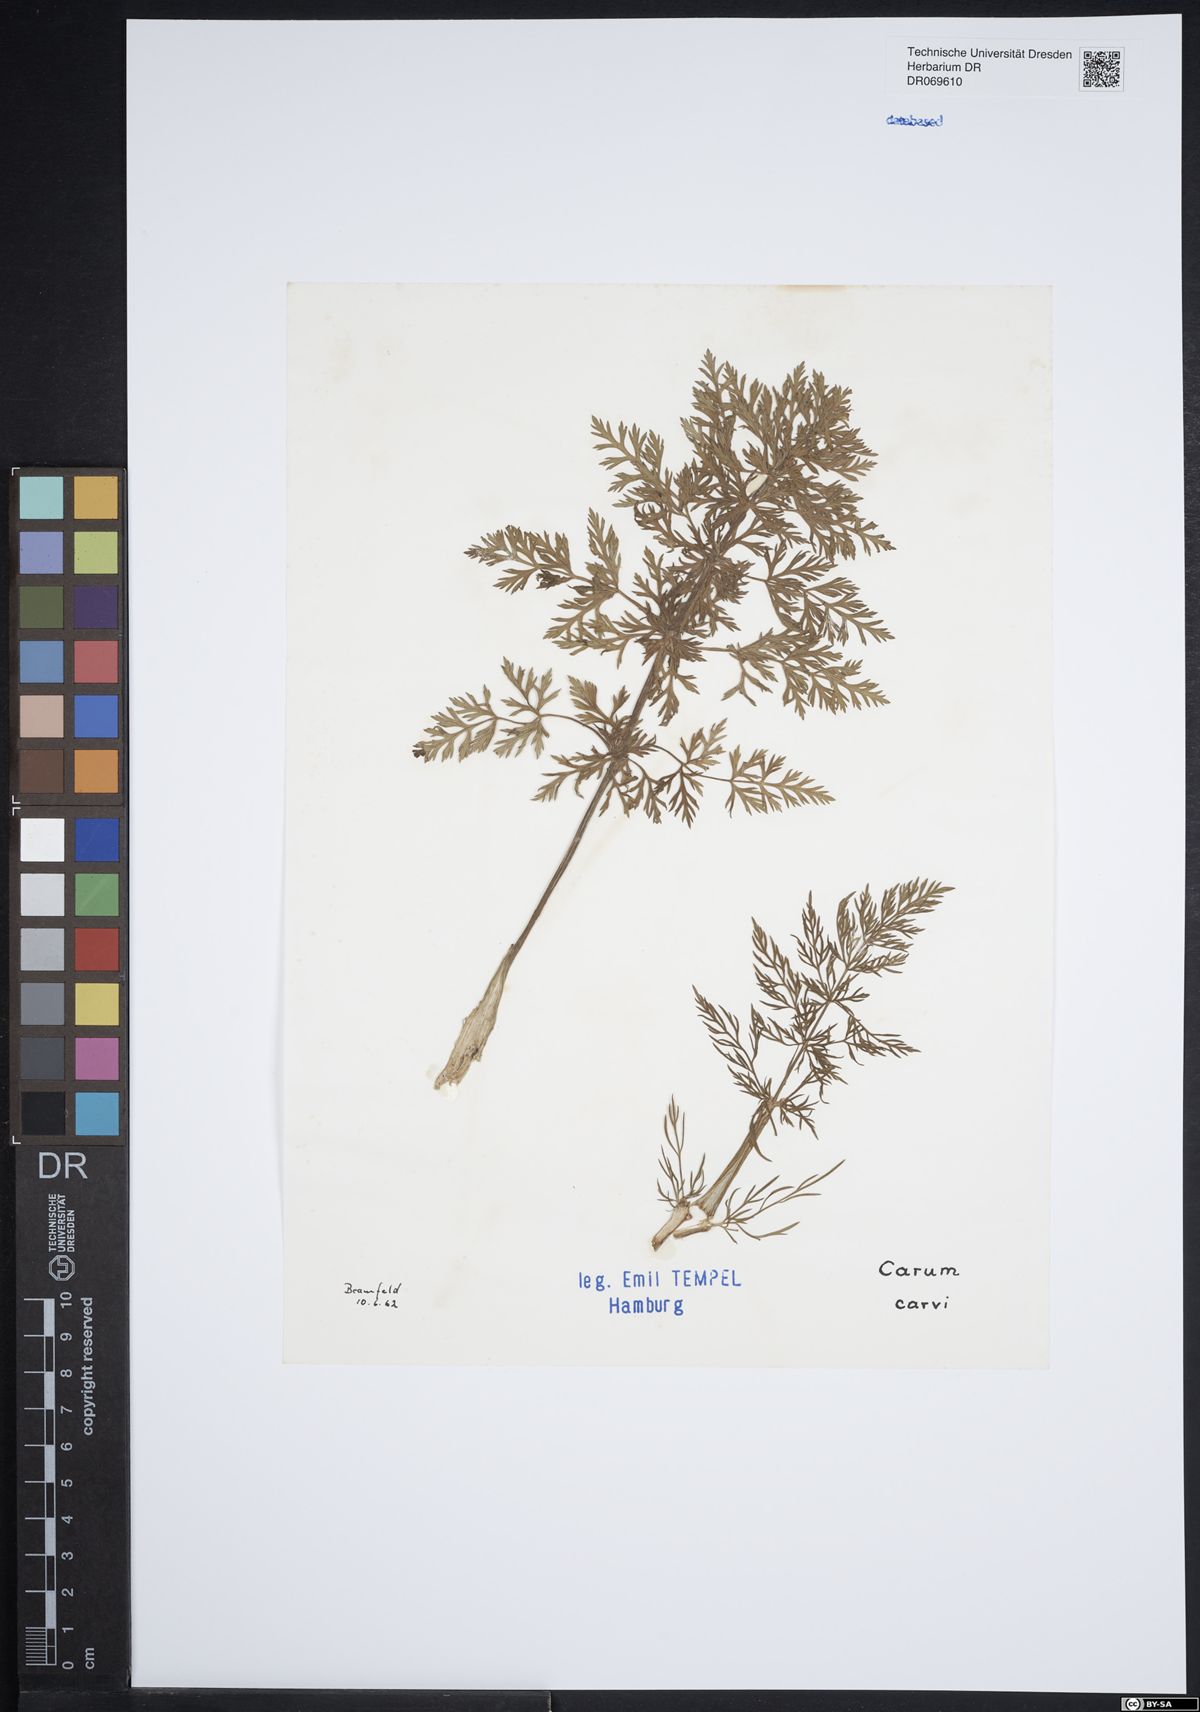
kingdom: Plantae
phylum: Tracheophyta
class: Magnoliopsida
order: Apiales
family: Apiaceae
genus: Carum
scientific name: Carum carvi
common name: Caraway
